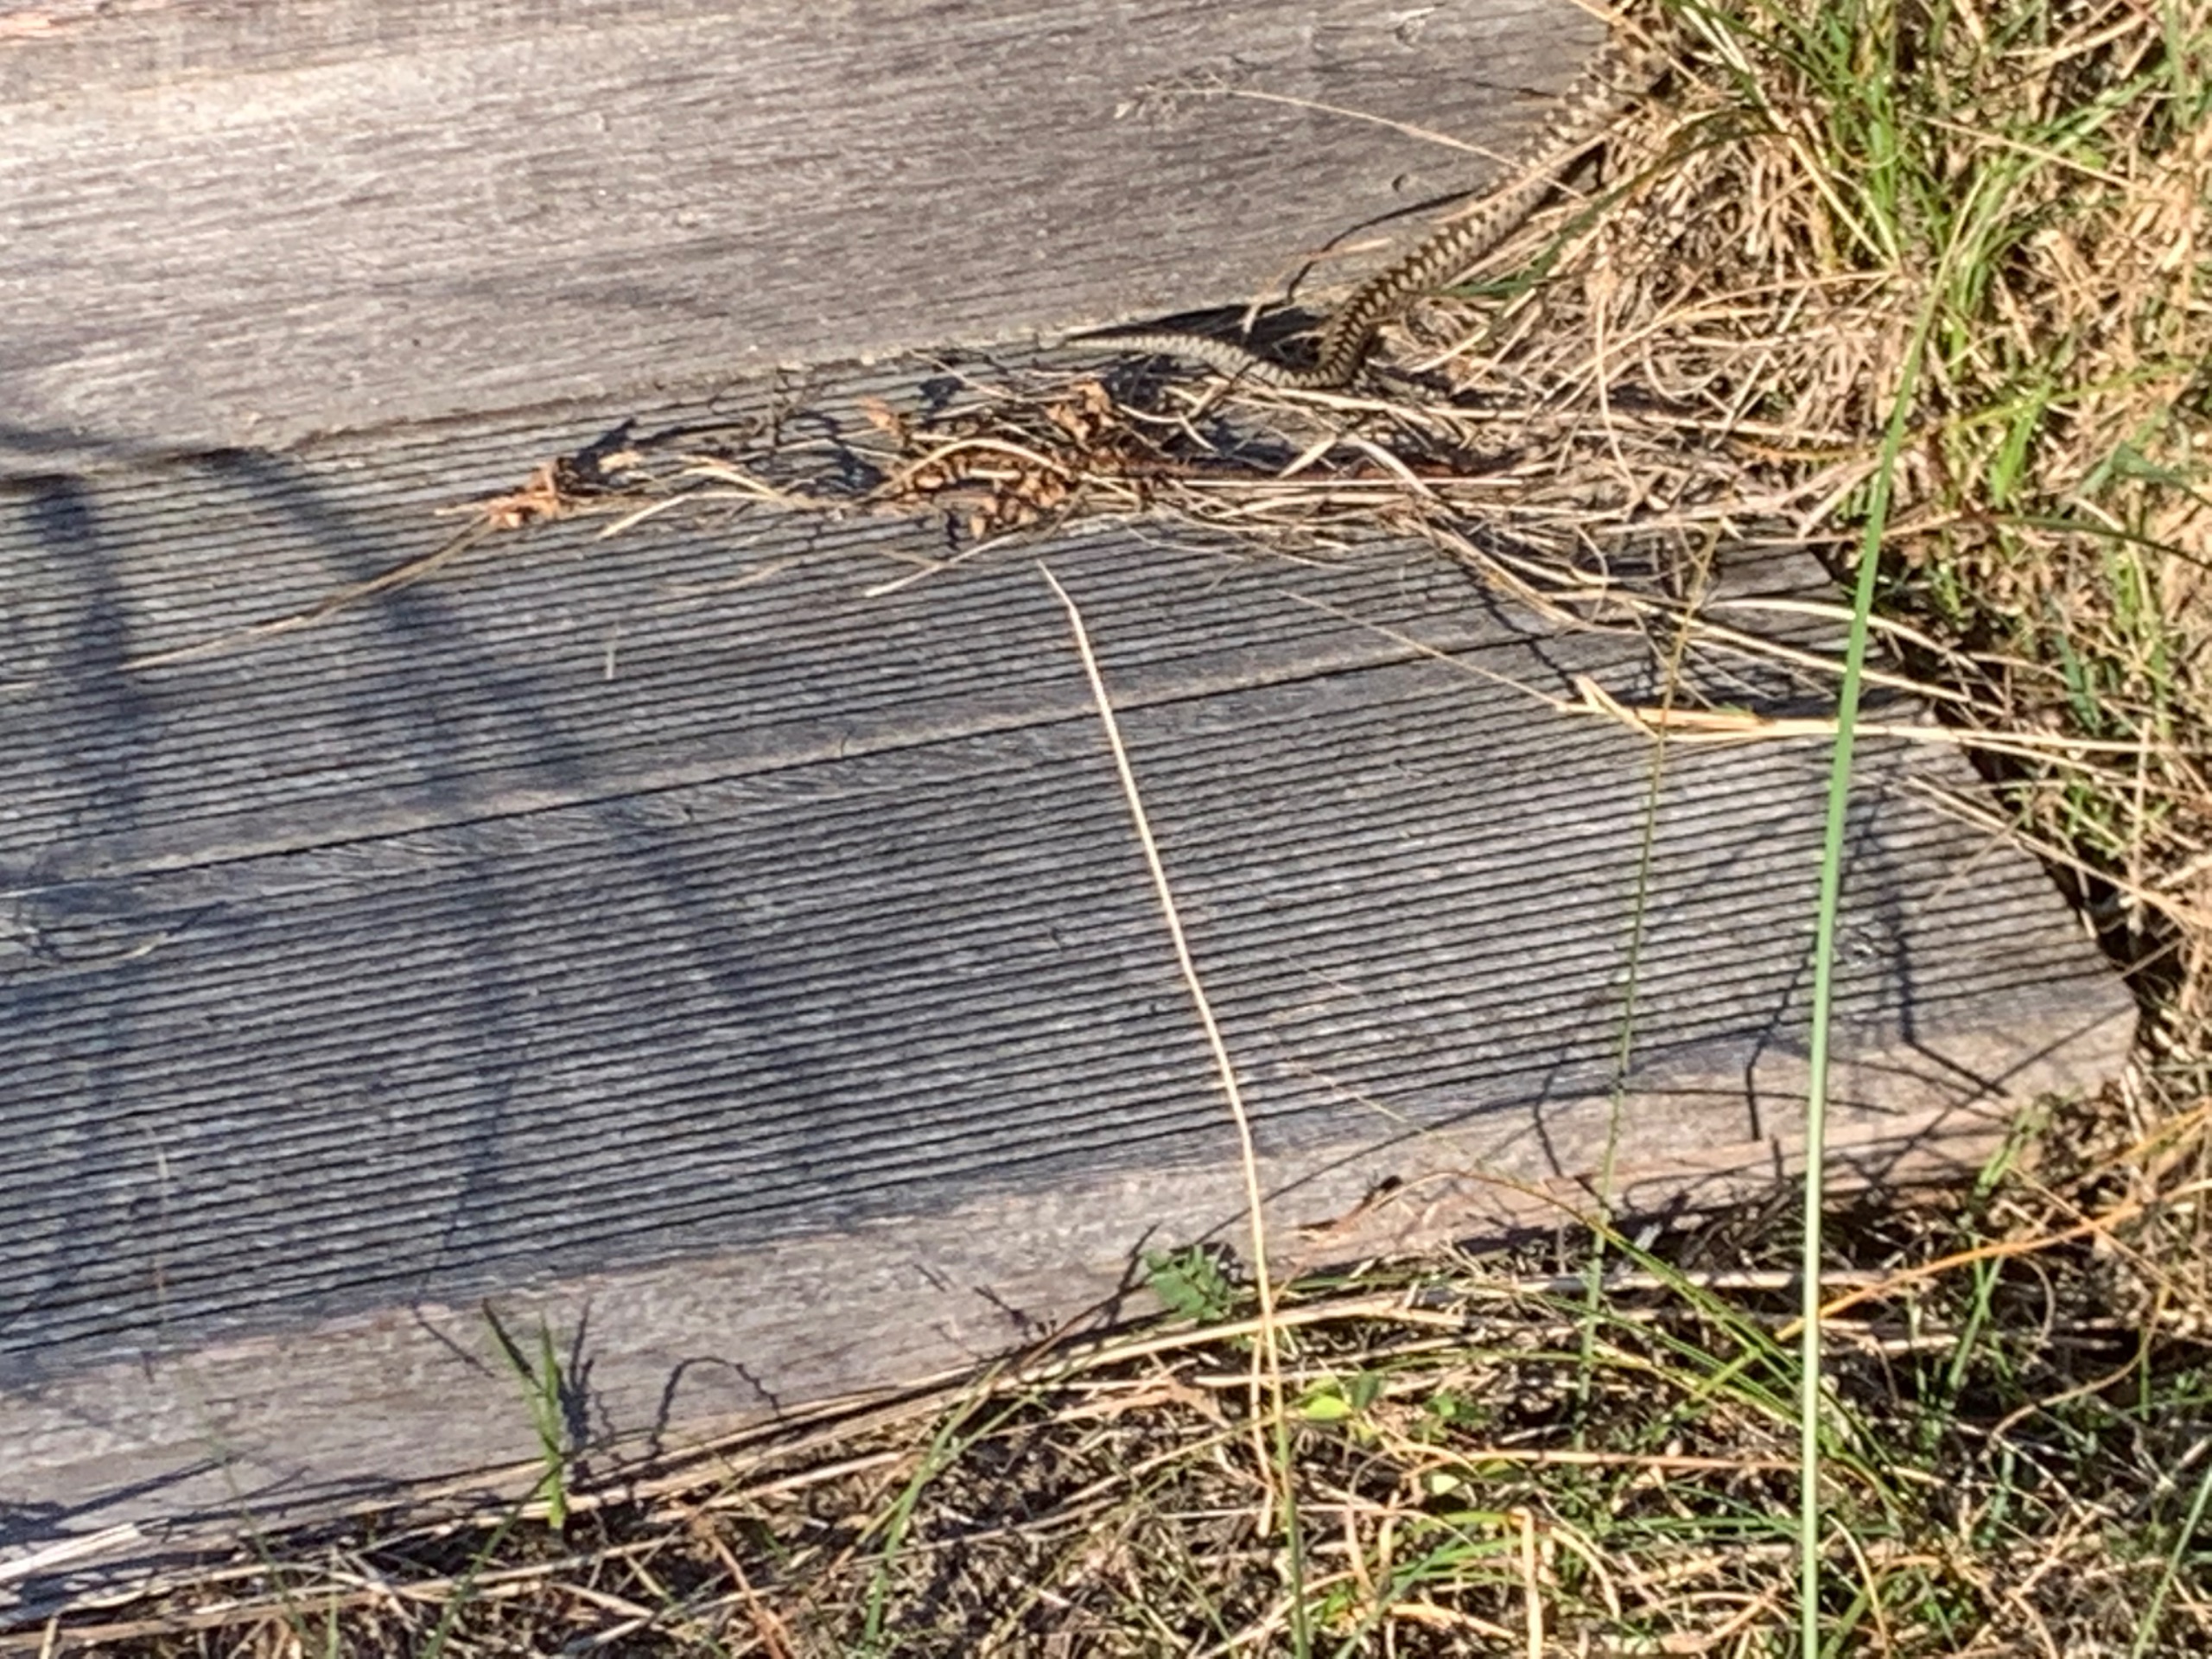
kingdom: Animalia
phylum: Chordata
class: Squamata
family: Viperidae
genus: Vipera
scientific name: Vipera berus
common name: Hugorm
